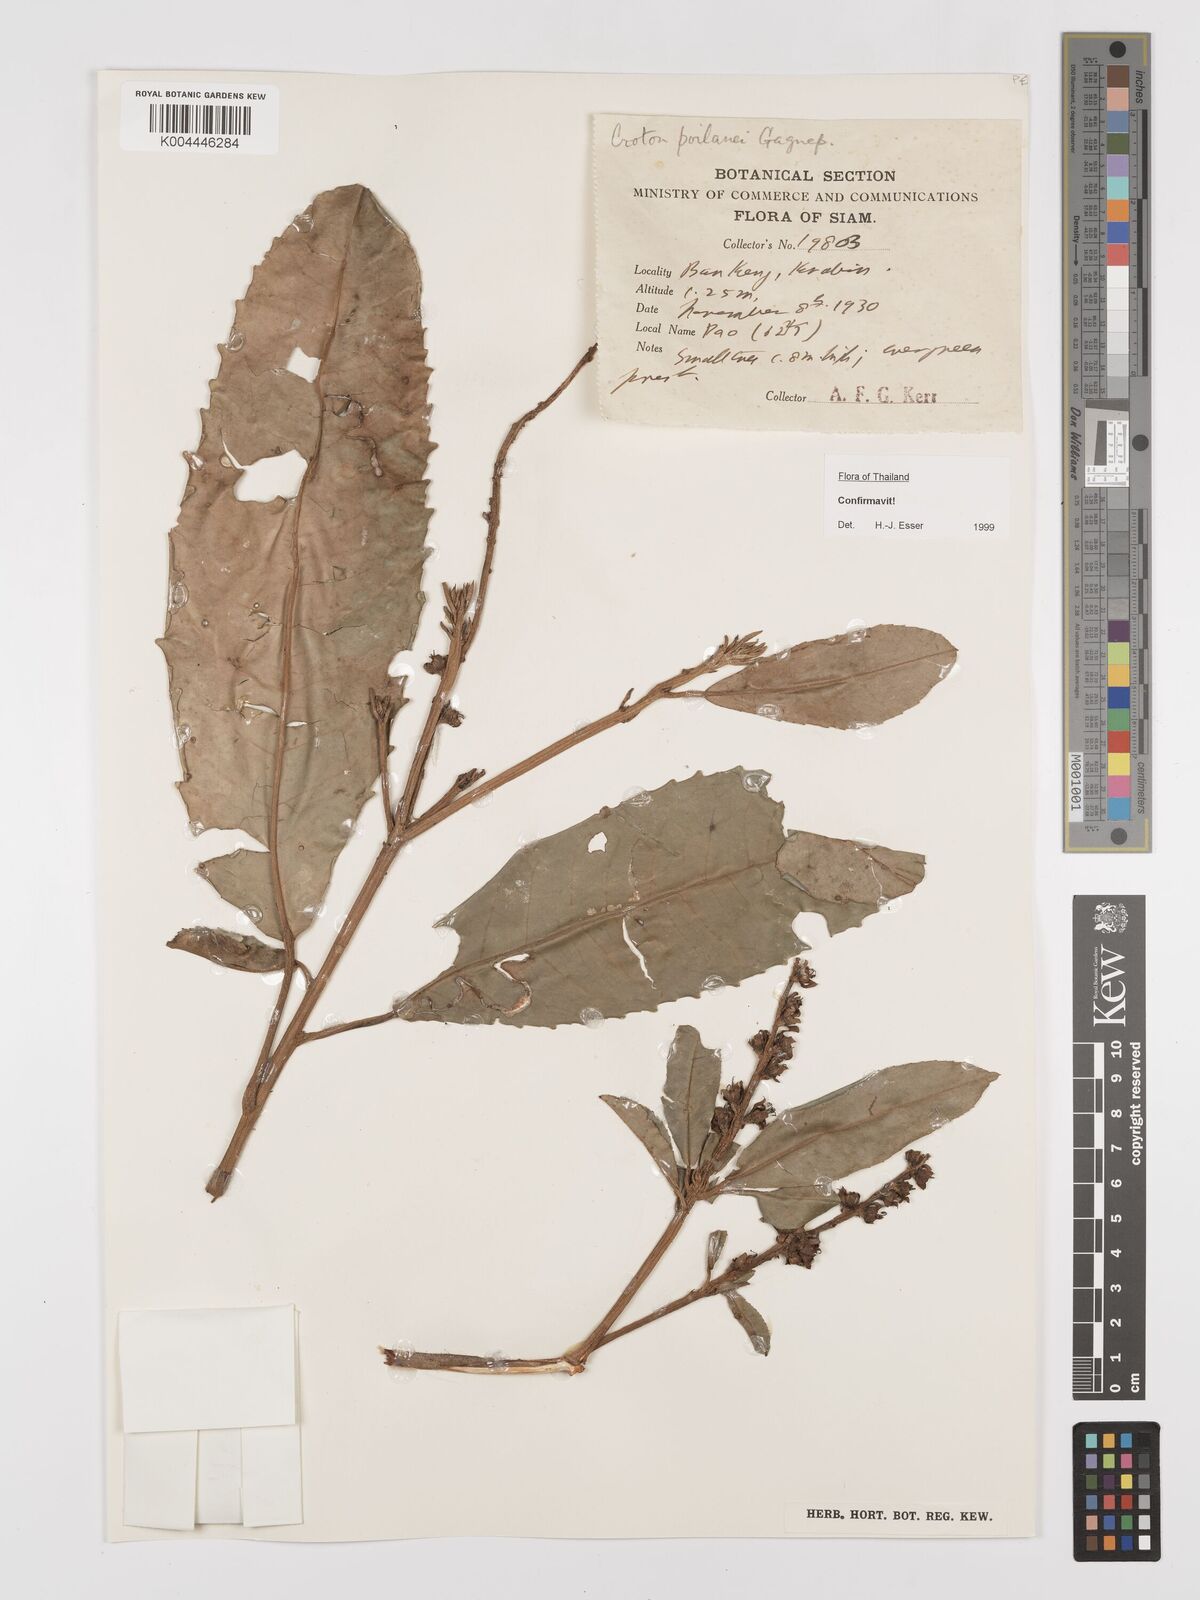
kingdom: Plantae
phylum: Tracheophyta
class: Magnoliopsida
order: Malpighiales
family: Euphorbiaceae
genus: Croton
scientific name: Croton poilanei
